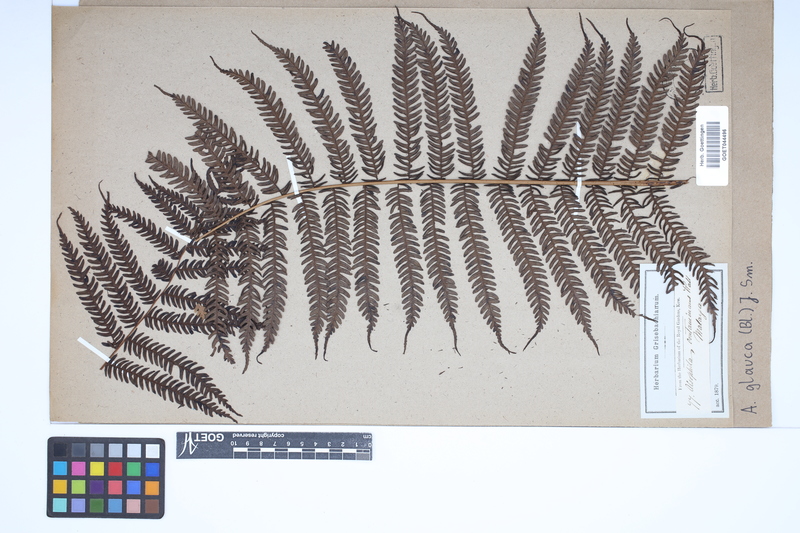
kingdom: Plantae
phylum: Tracheophyta
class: Polypodiopsida
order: Cyatheales
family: Cyatheaceae
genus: Sphaeropteris
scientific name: Sphaeropteris glauca
